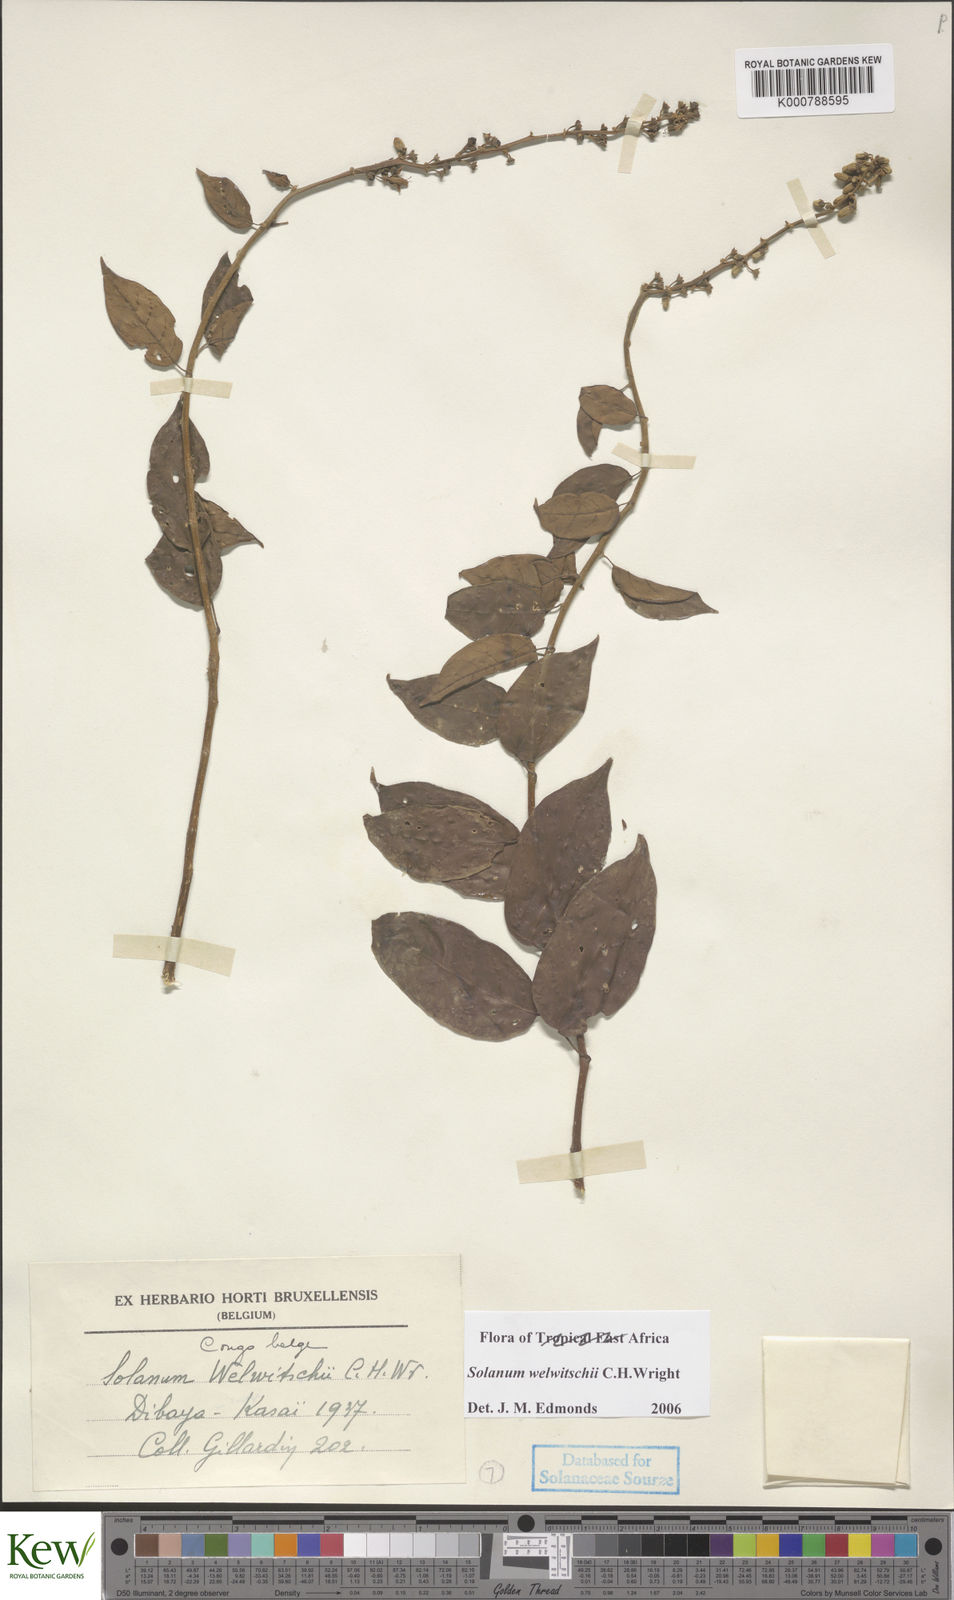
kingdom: Plantae
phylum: Tracheophyta
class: Magnoliopsida
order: Solanales
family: Solanaceae
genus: Solanum
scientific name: Solanum terminale
